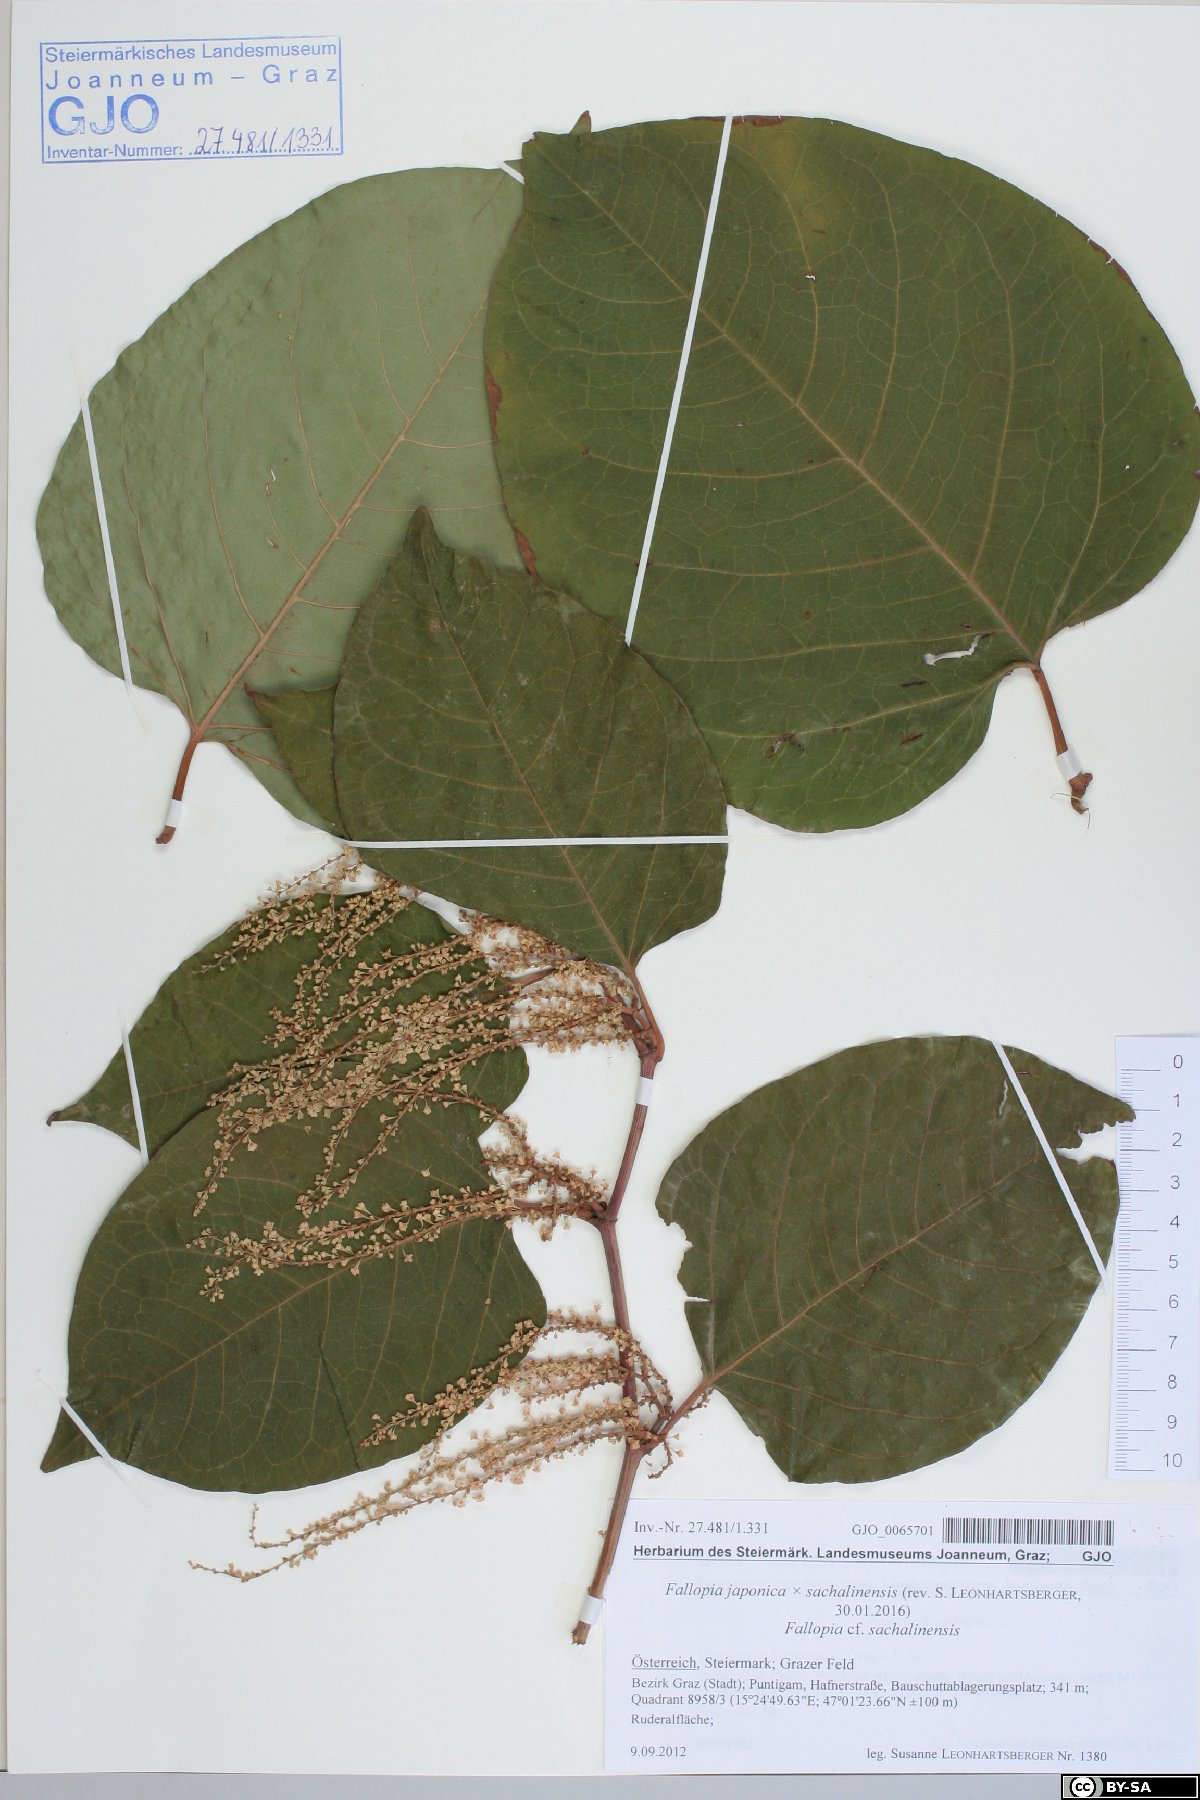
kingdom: Plantae
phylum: Tracheophyta
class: Magnoliopsida
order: Caryophyllales
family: Polygonaceae
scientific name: Polygonaceae
